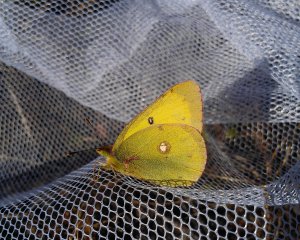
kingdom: Animalia
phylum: Arthropoda
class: Insecta
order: Lepidoptera
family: Pieridae
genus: Colias
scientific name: Colias philodice
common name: Clouded Sulphur
